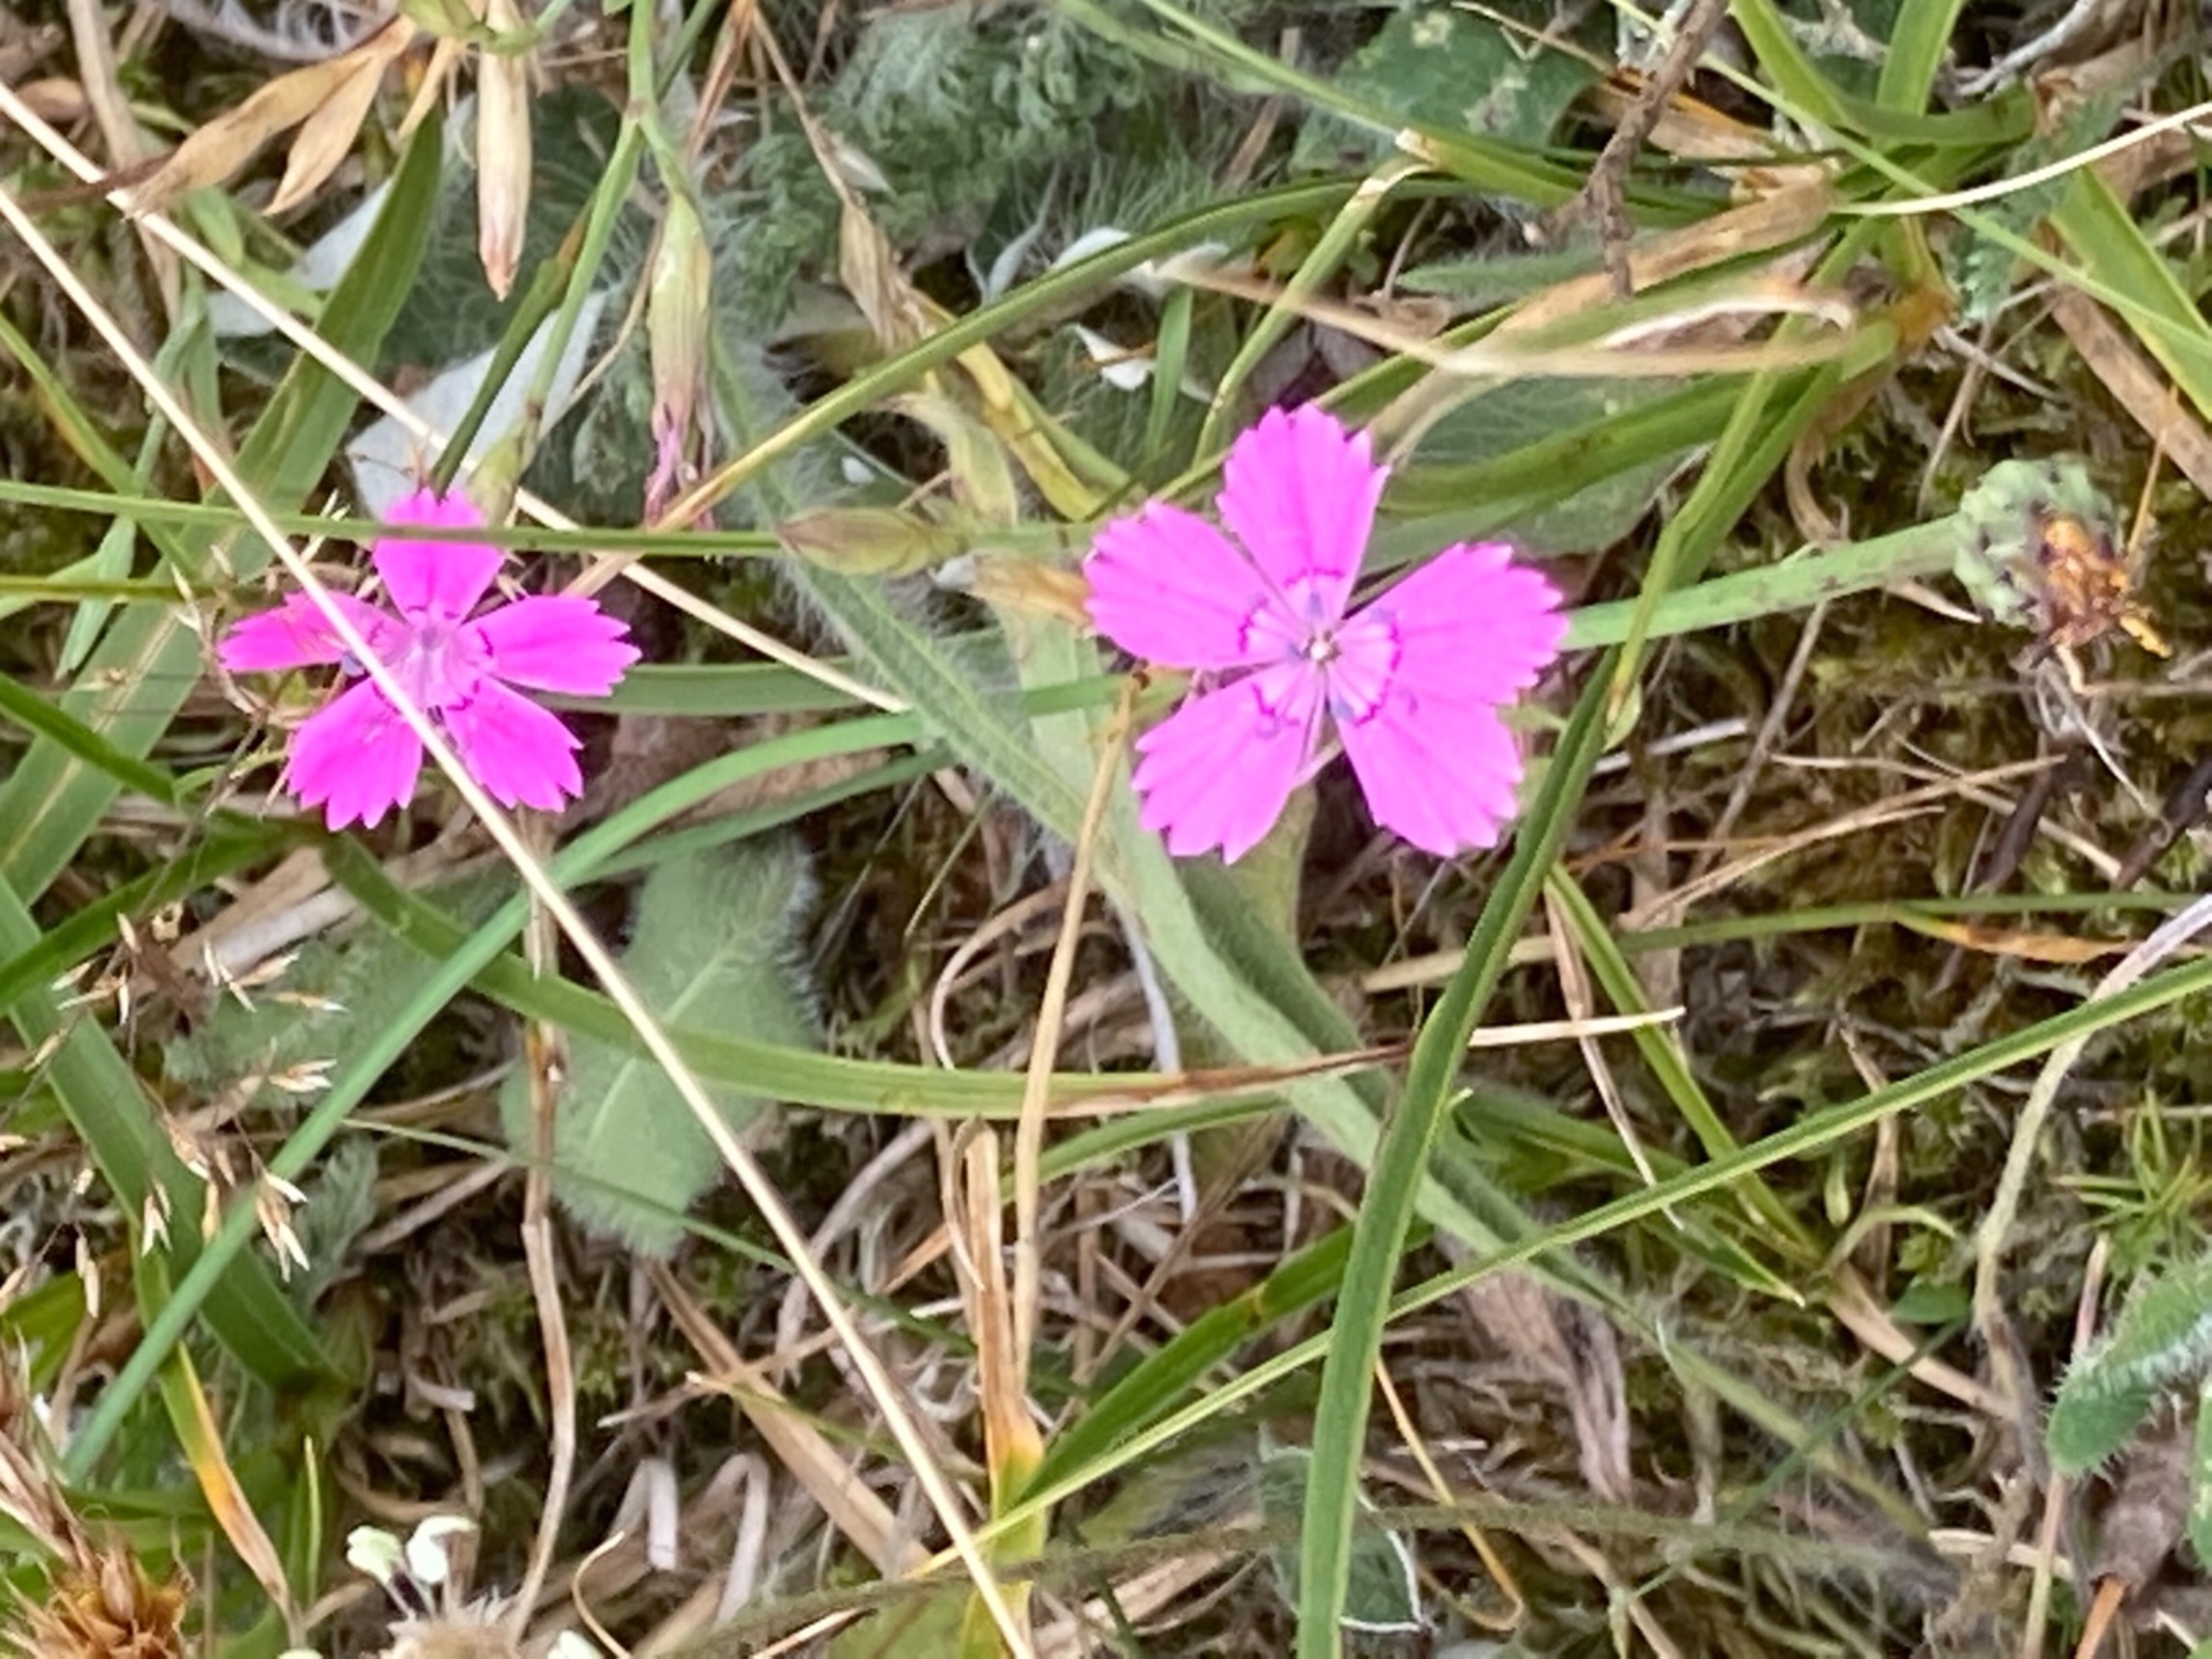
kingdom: Plantae
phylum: Tracheophyta
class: Magnoliopsida
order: Caryophyllales
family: Caryophyllaceae
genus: Dianthus
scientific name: Dianthus deltoides
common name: Bakke-nellike
